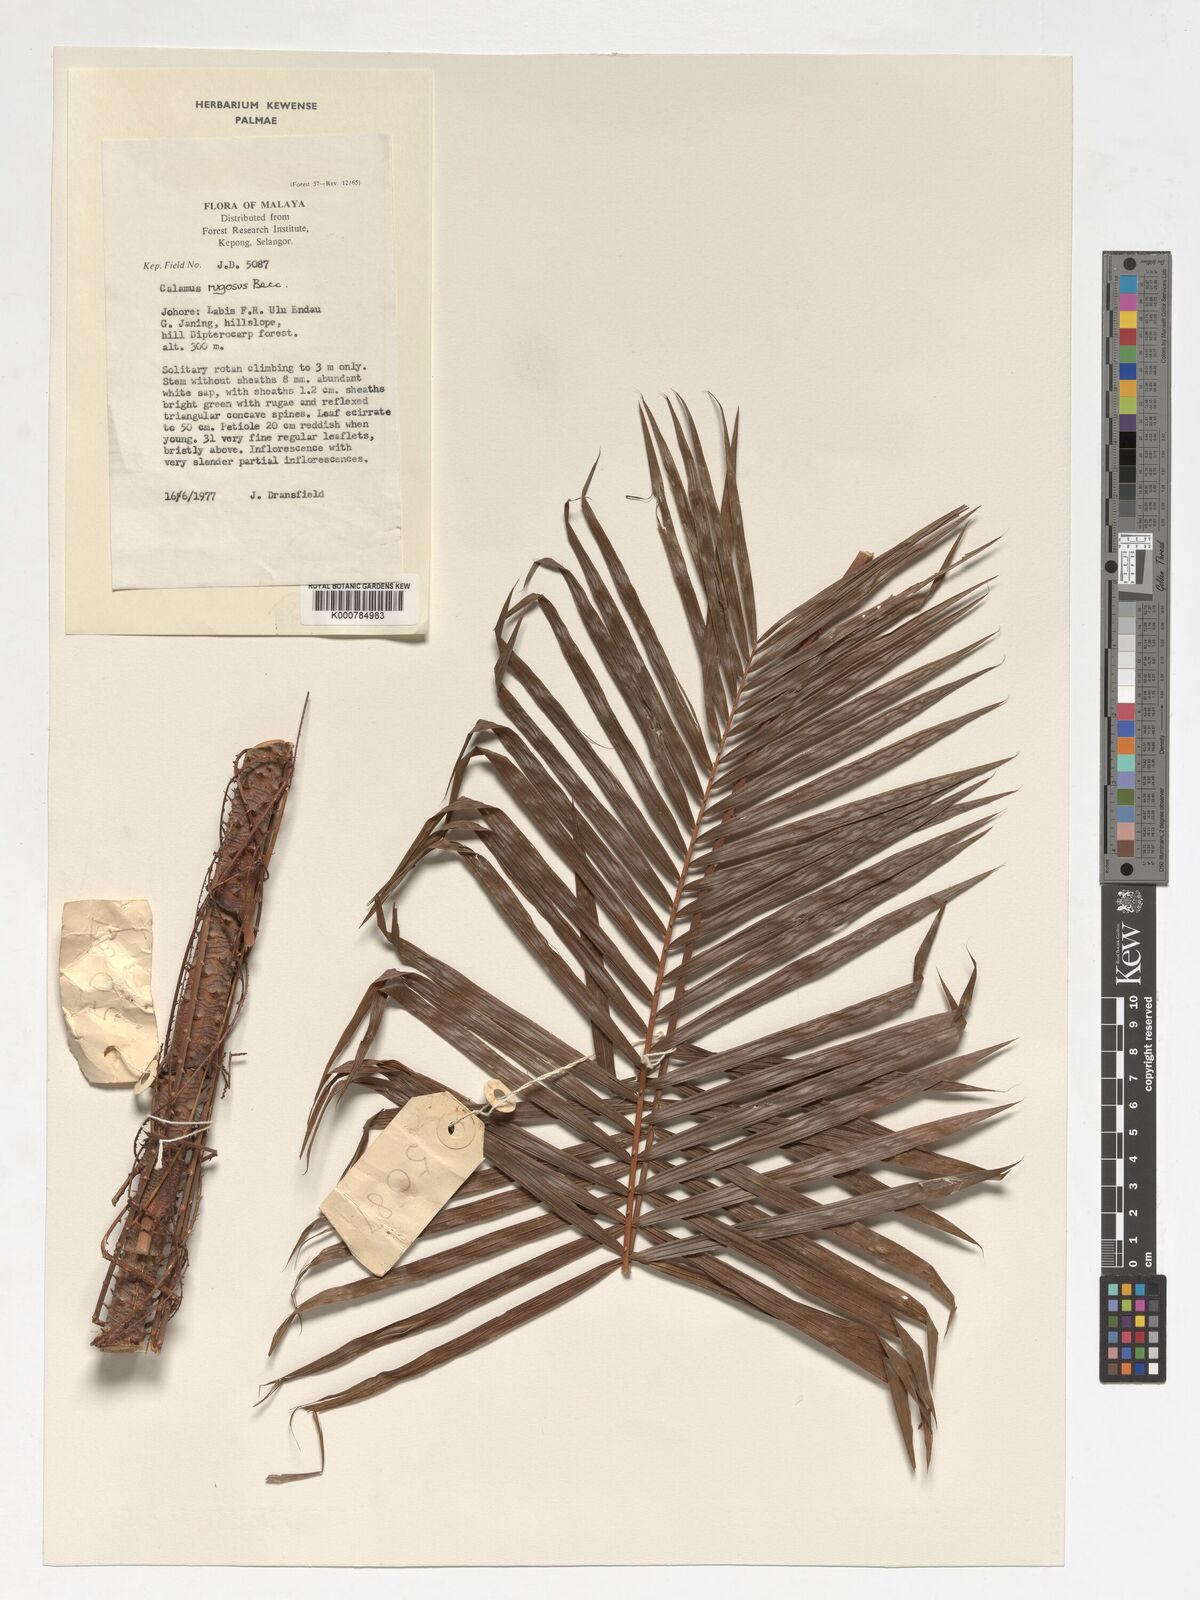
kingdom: Plantae
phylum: Tracheophyta
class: Liliopsida
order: Arecales
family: Arecaceae
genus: Calamus
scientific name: Calamus rugosus
